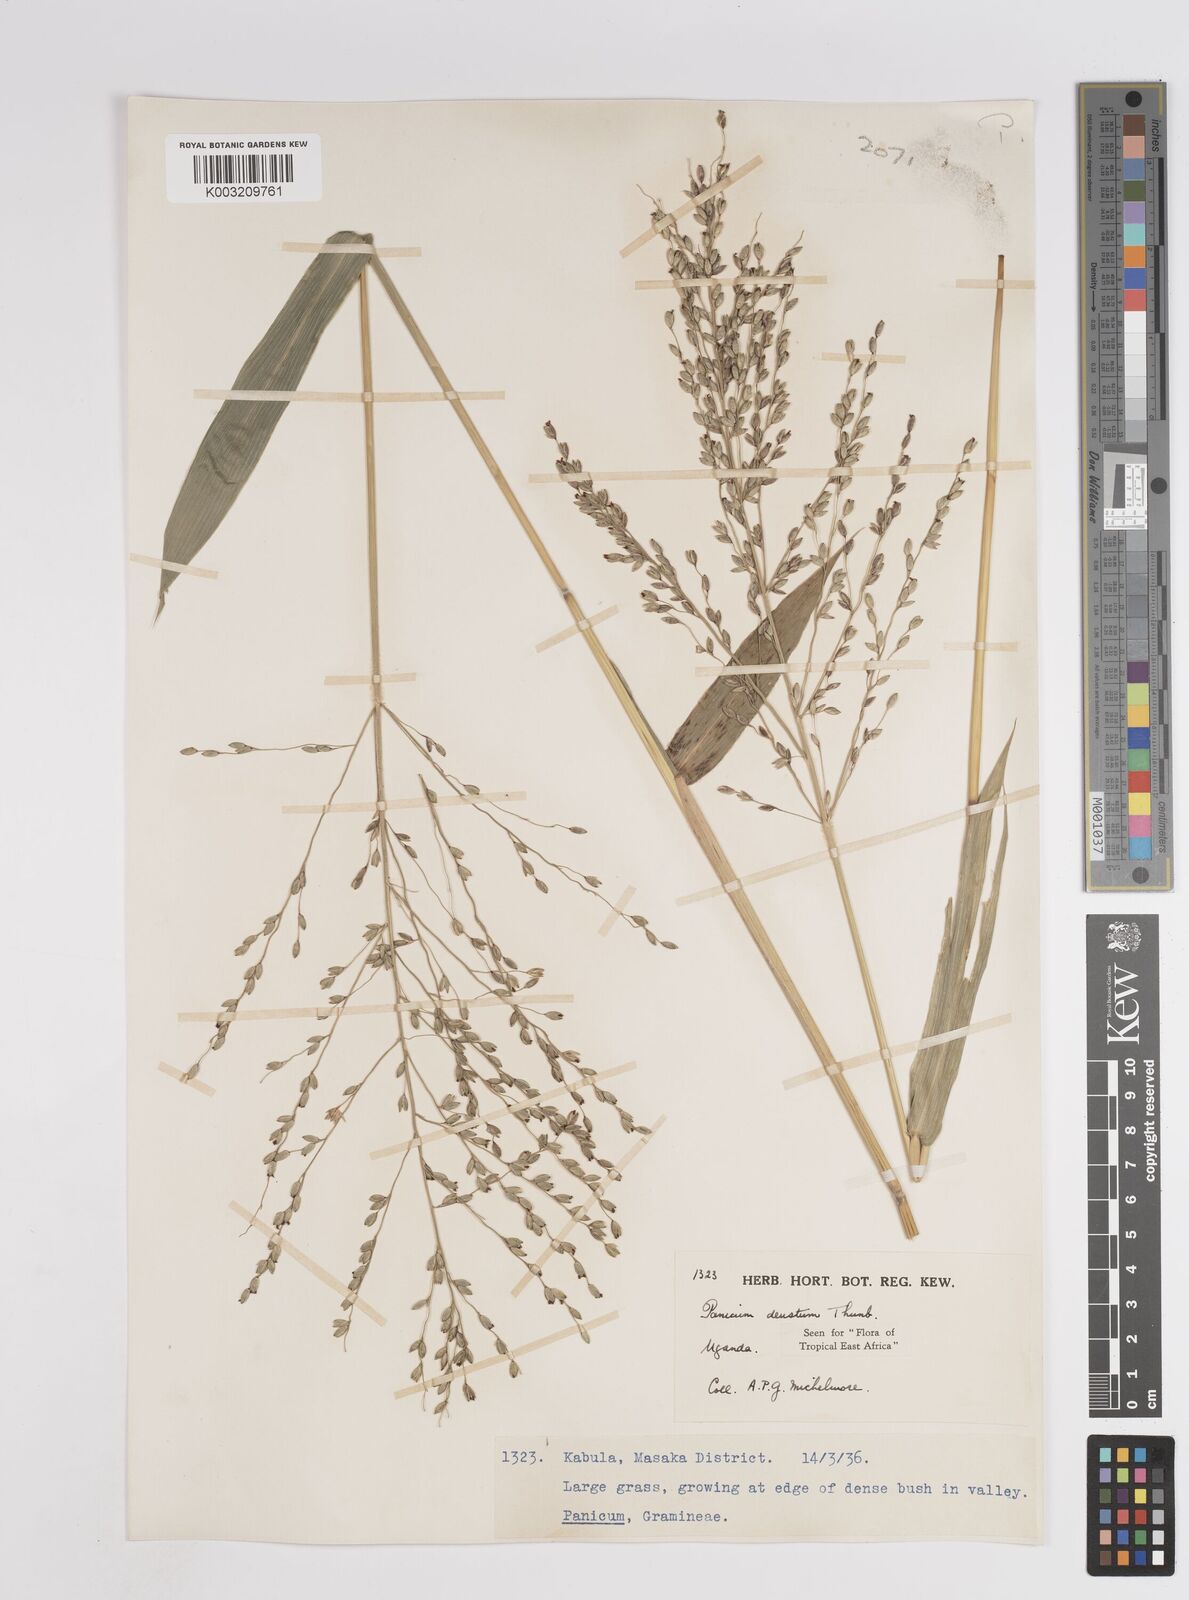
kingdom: Plantae
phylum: Tracheophyta
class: Liliopsida
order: Poales
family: Poaceae
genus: Panicum
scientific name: Panicum deustum
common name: Reed panicum
